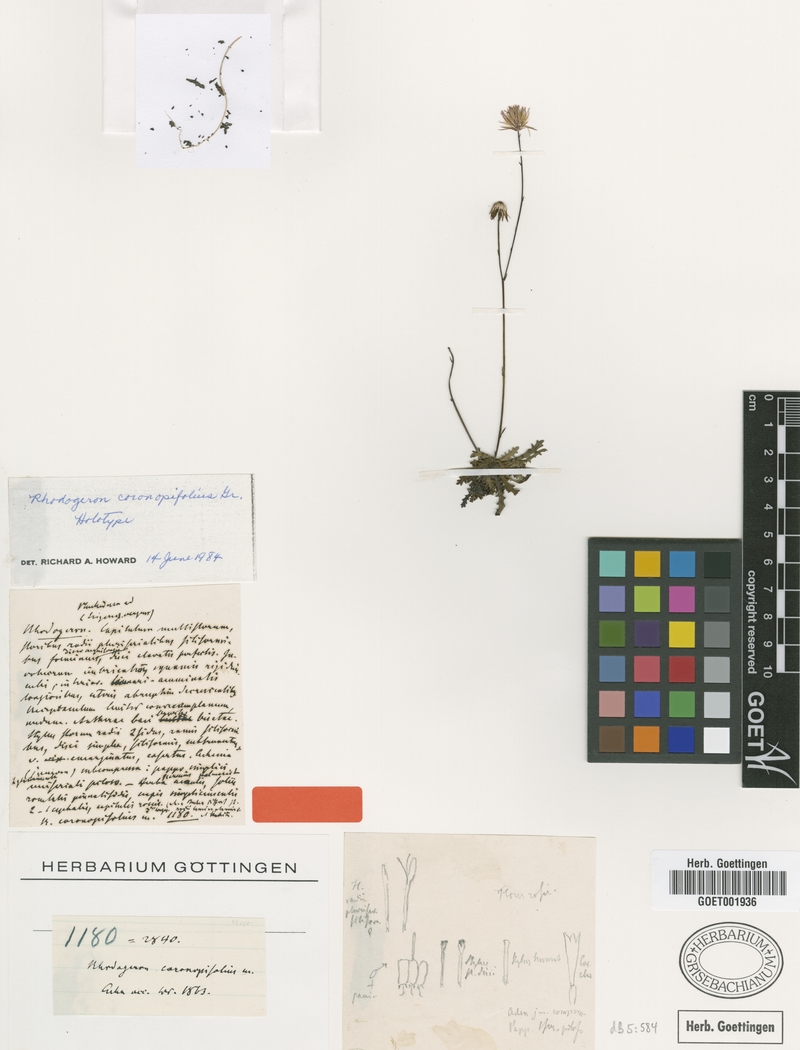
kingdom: Plantae
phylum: Tracheophyta
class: Magnoliopsida
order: Asterales
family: Asteraceae
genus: Sachsia
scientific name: Sachsia coronopifolia
